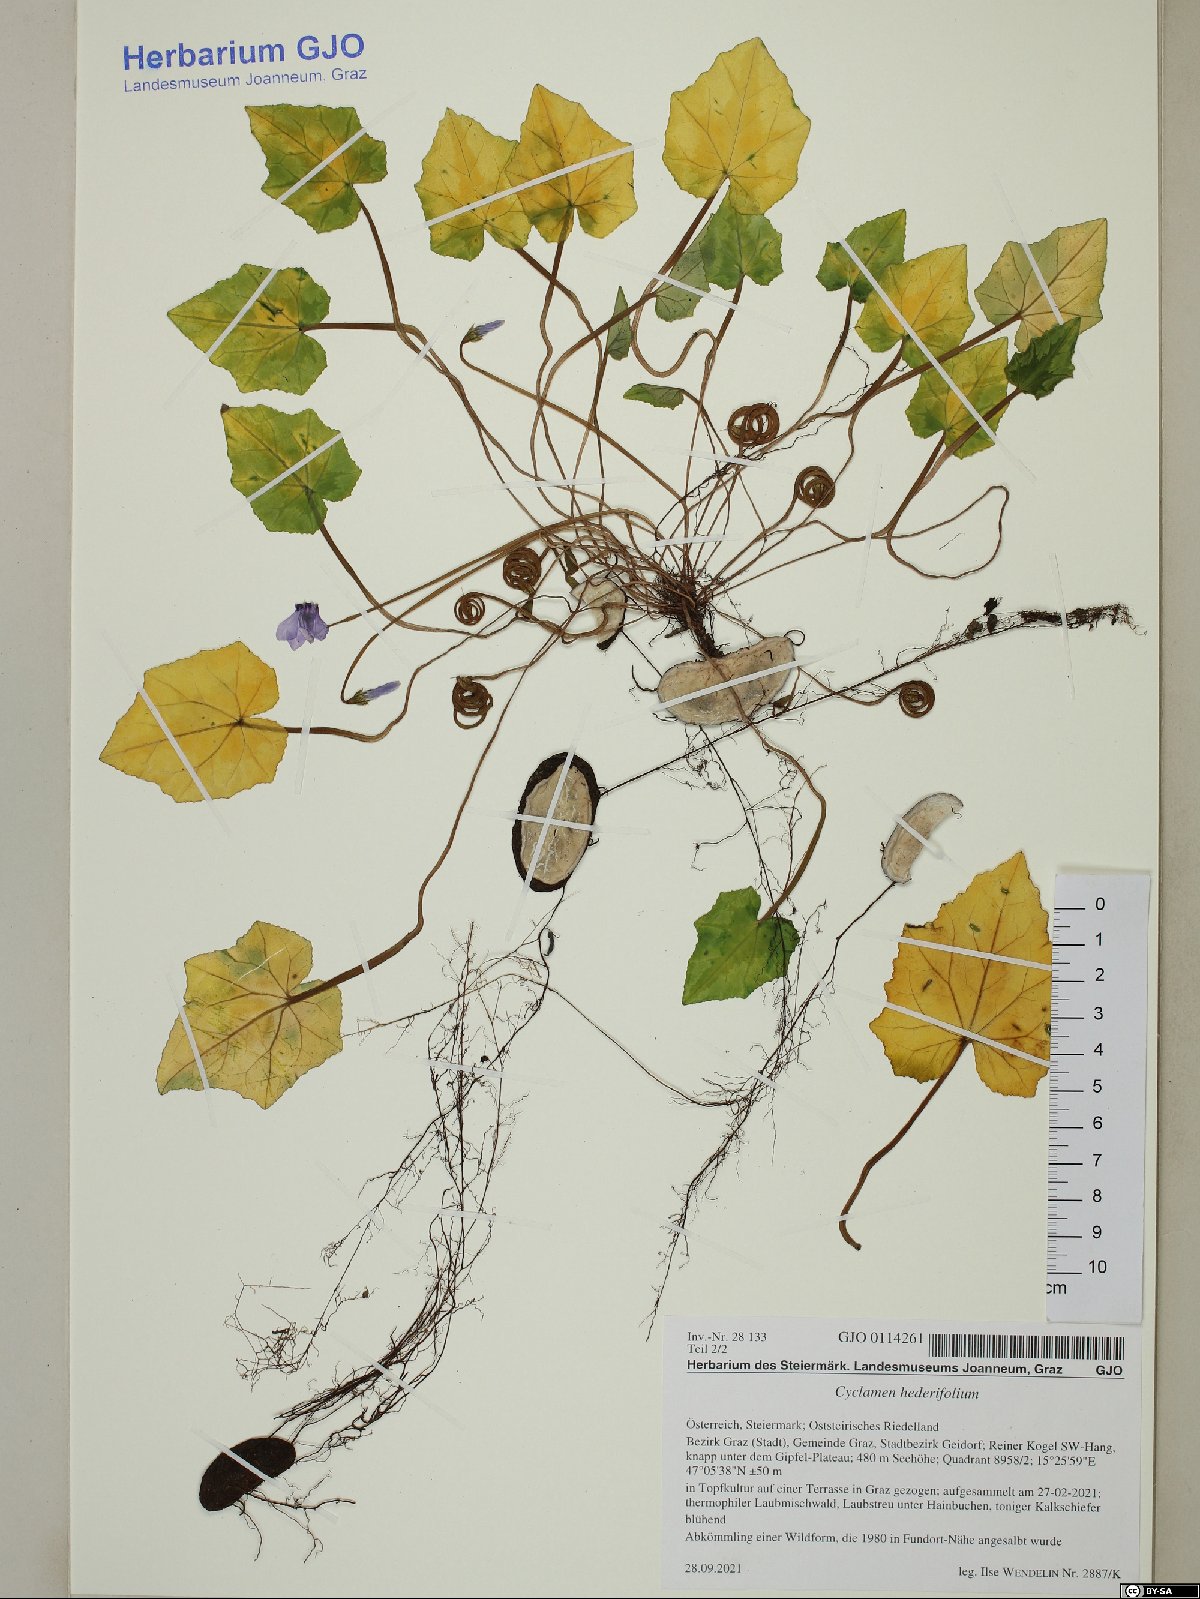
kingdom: Plantae
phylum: Tracheophyta
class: Magnoliopsida
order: Ericales
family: Primulaceae
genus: Cyclamen
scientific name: Cyclamen hederifolium
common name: Sowbread
